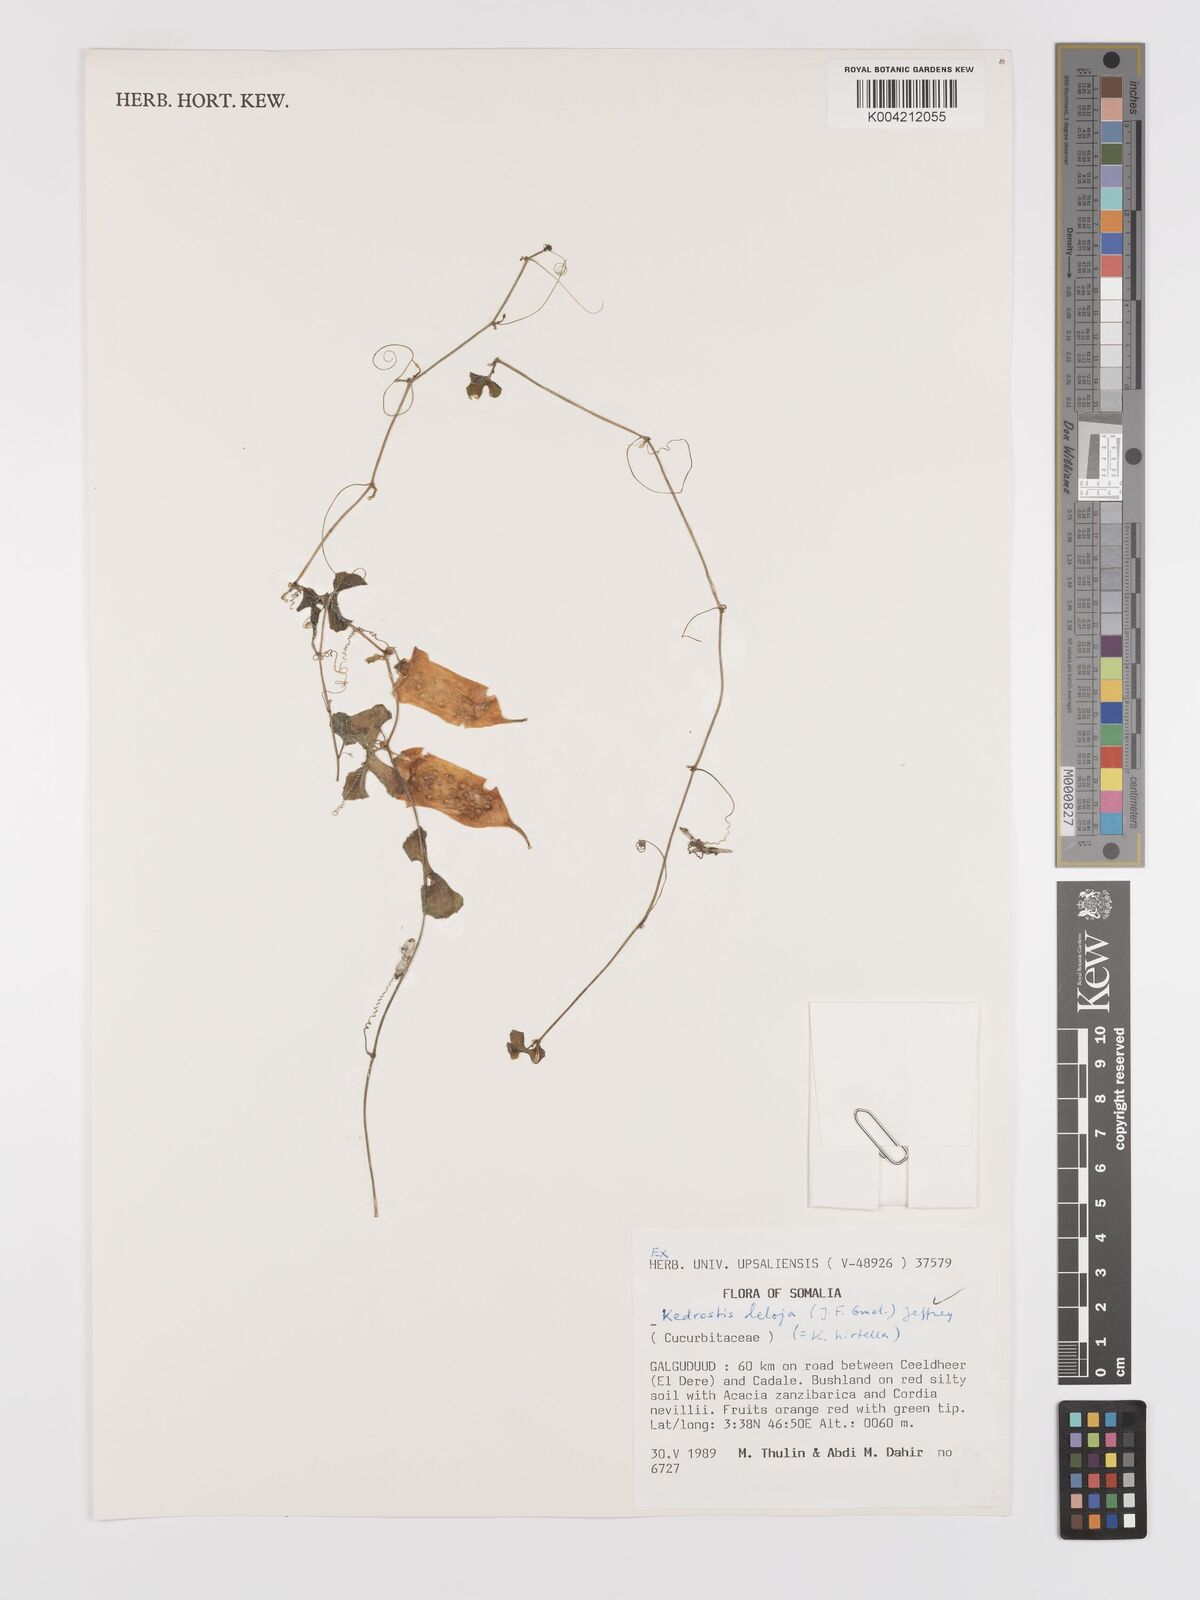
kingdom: Plantae
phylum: Tracheophyta
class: Magnoliopsida
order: Cucurbitales
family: Cucurbitaceae
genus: Kedrostis
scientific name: Kedrostis leloja
